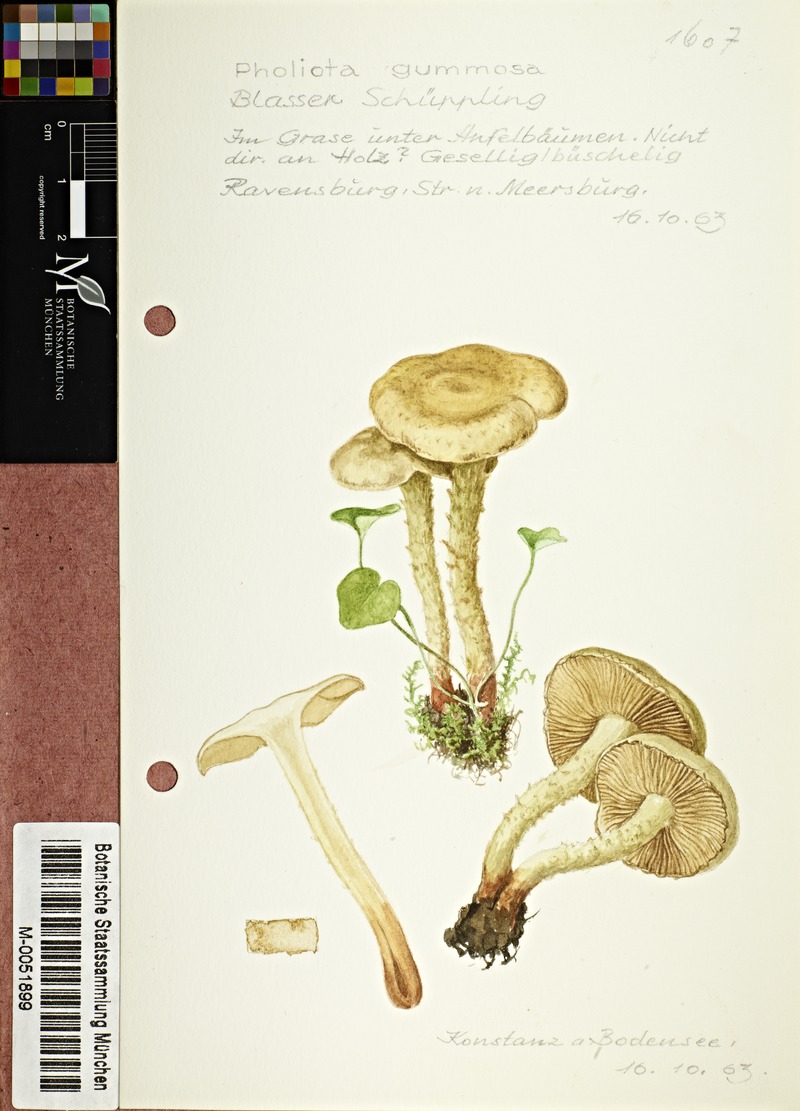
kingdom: Fungi
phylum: Basidiomycota
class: Agaricomycetes
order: Agaricales
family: Strophariaceae
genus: Pholiota
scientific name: Pholiota gummosa
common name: Sticky scalycap
